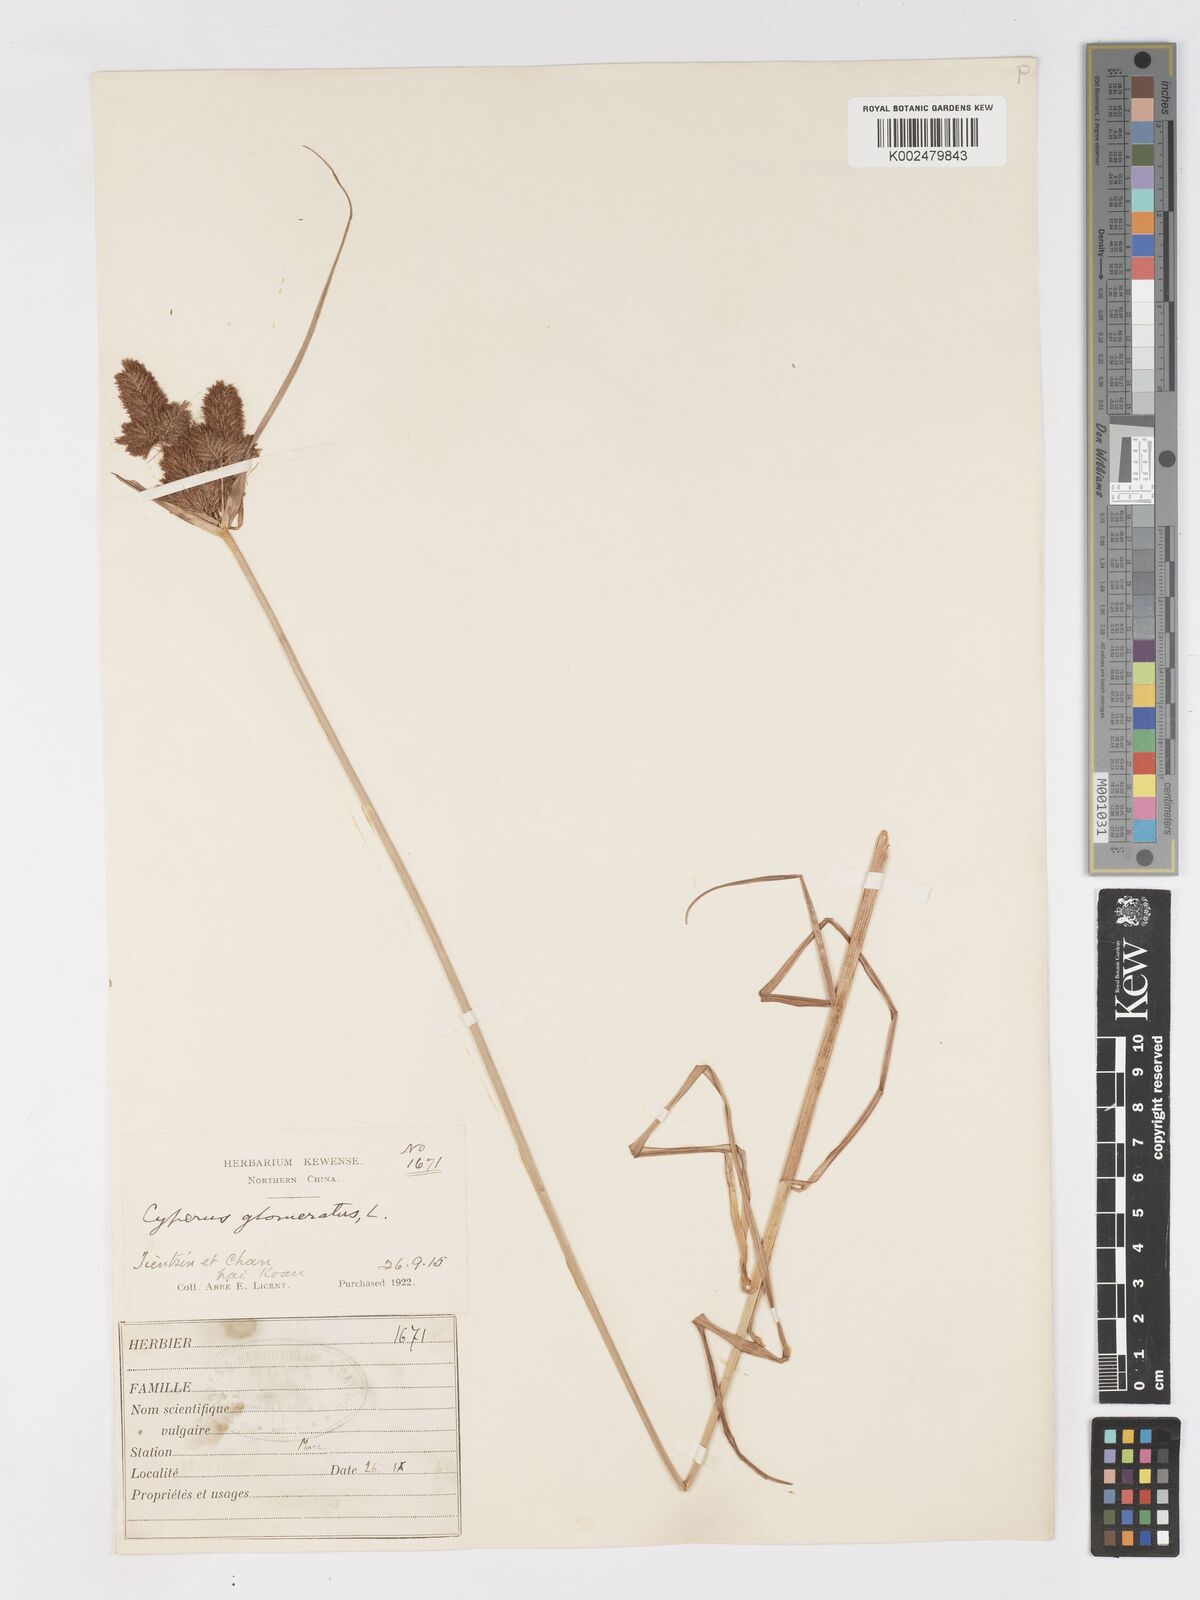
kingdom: Plantae
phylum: Tracheophyta
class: Liliopsida
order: Poales
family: Cyperaceae
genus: Cyperus
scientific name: Cyperus glomeratus
